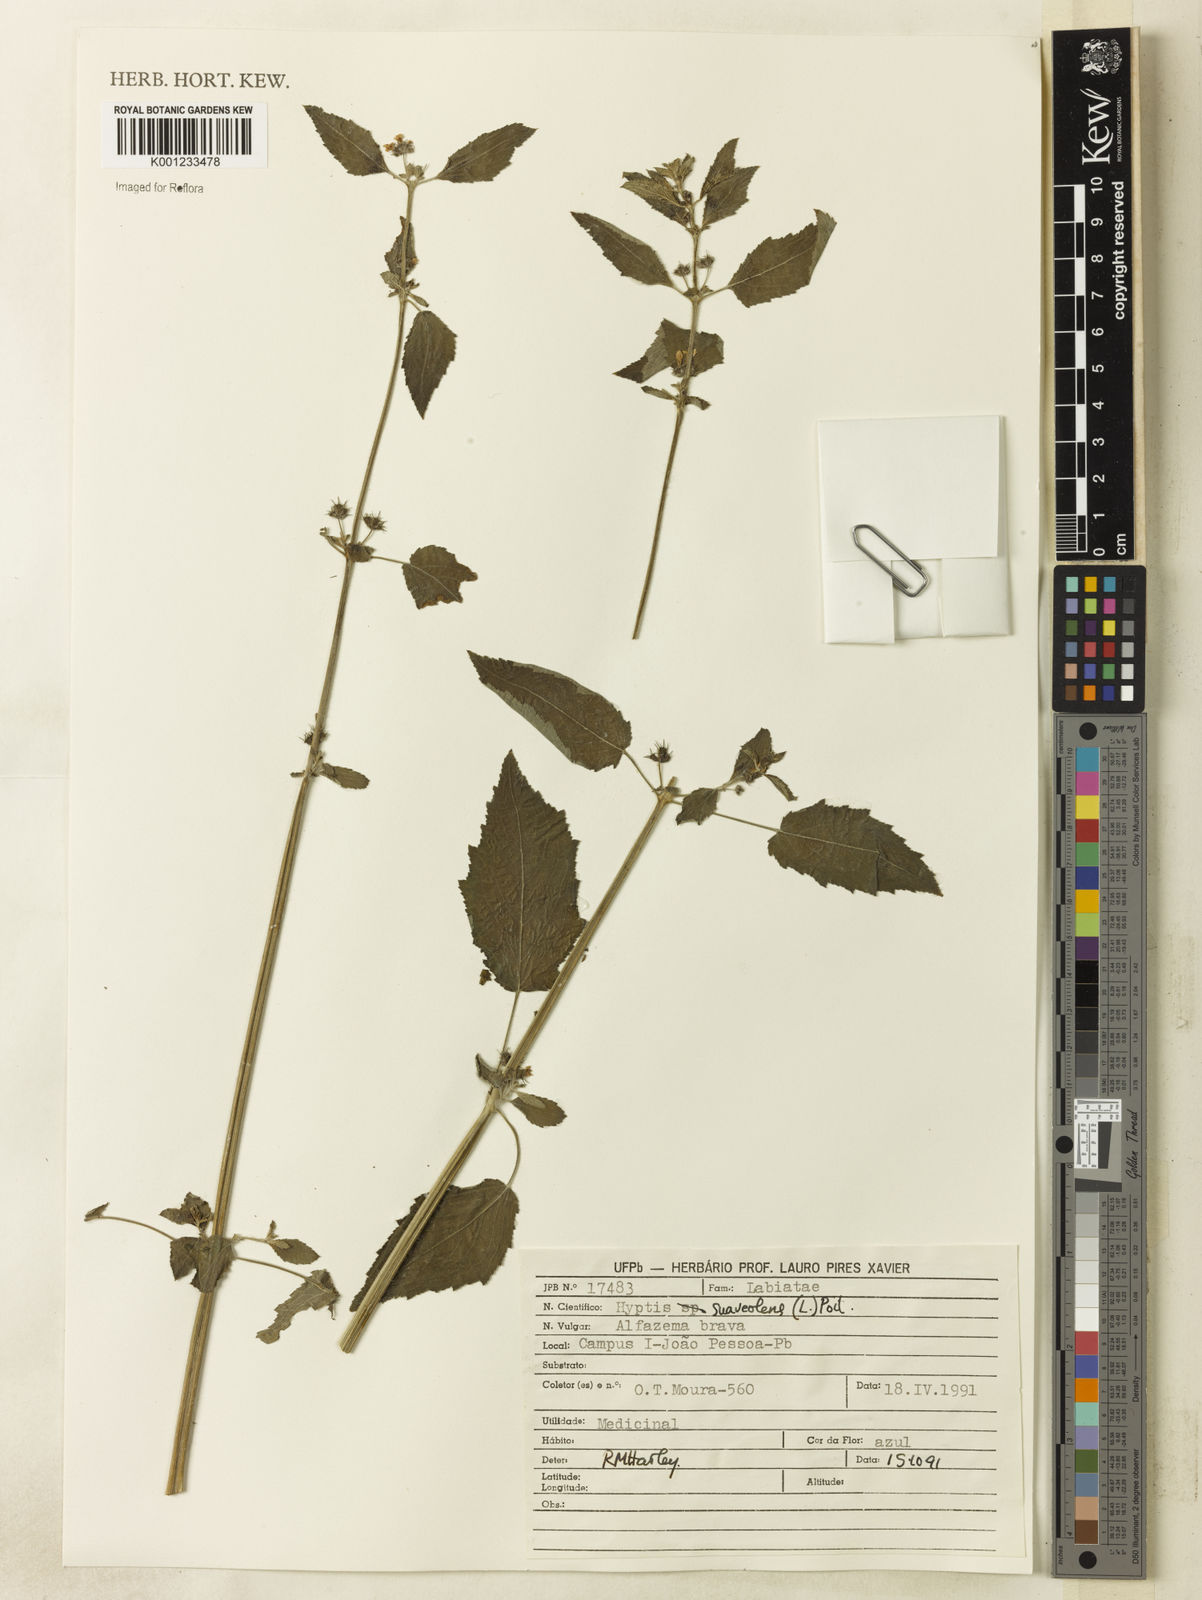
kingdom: Plantae
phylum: Tracheophyta
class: Magnoliopsida
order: Lamiales
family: Lamiaceae
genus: Mesosphaerum
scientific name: Mesosphaerum suaveolens
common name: Pignut
